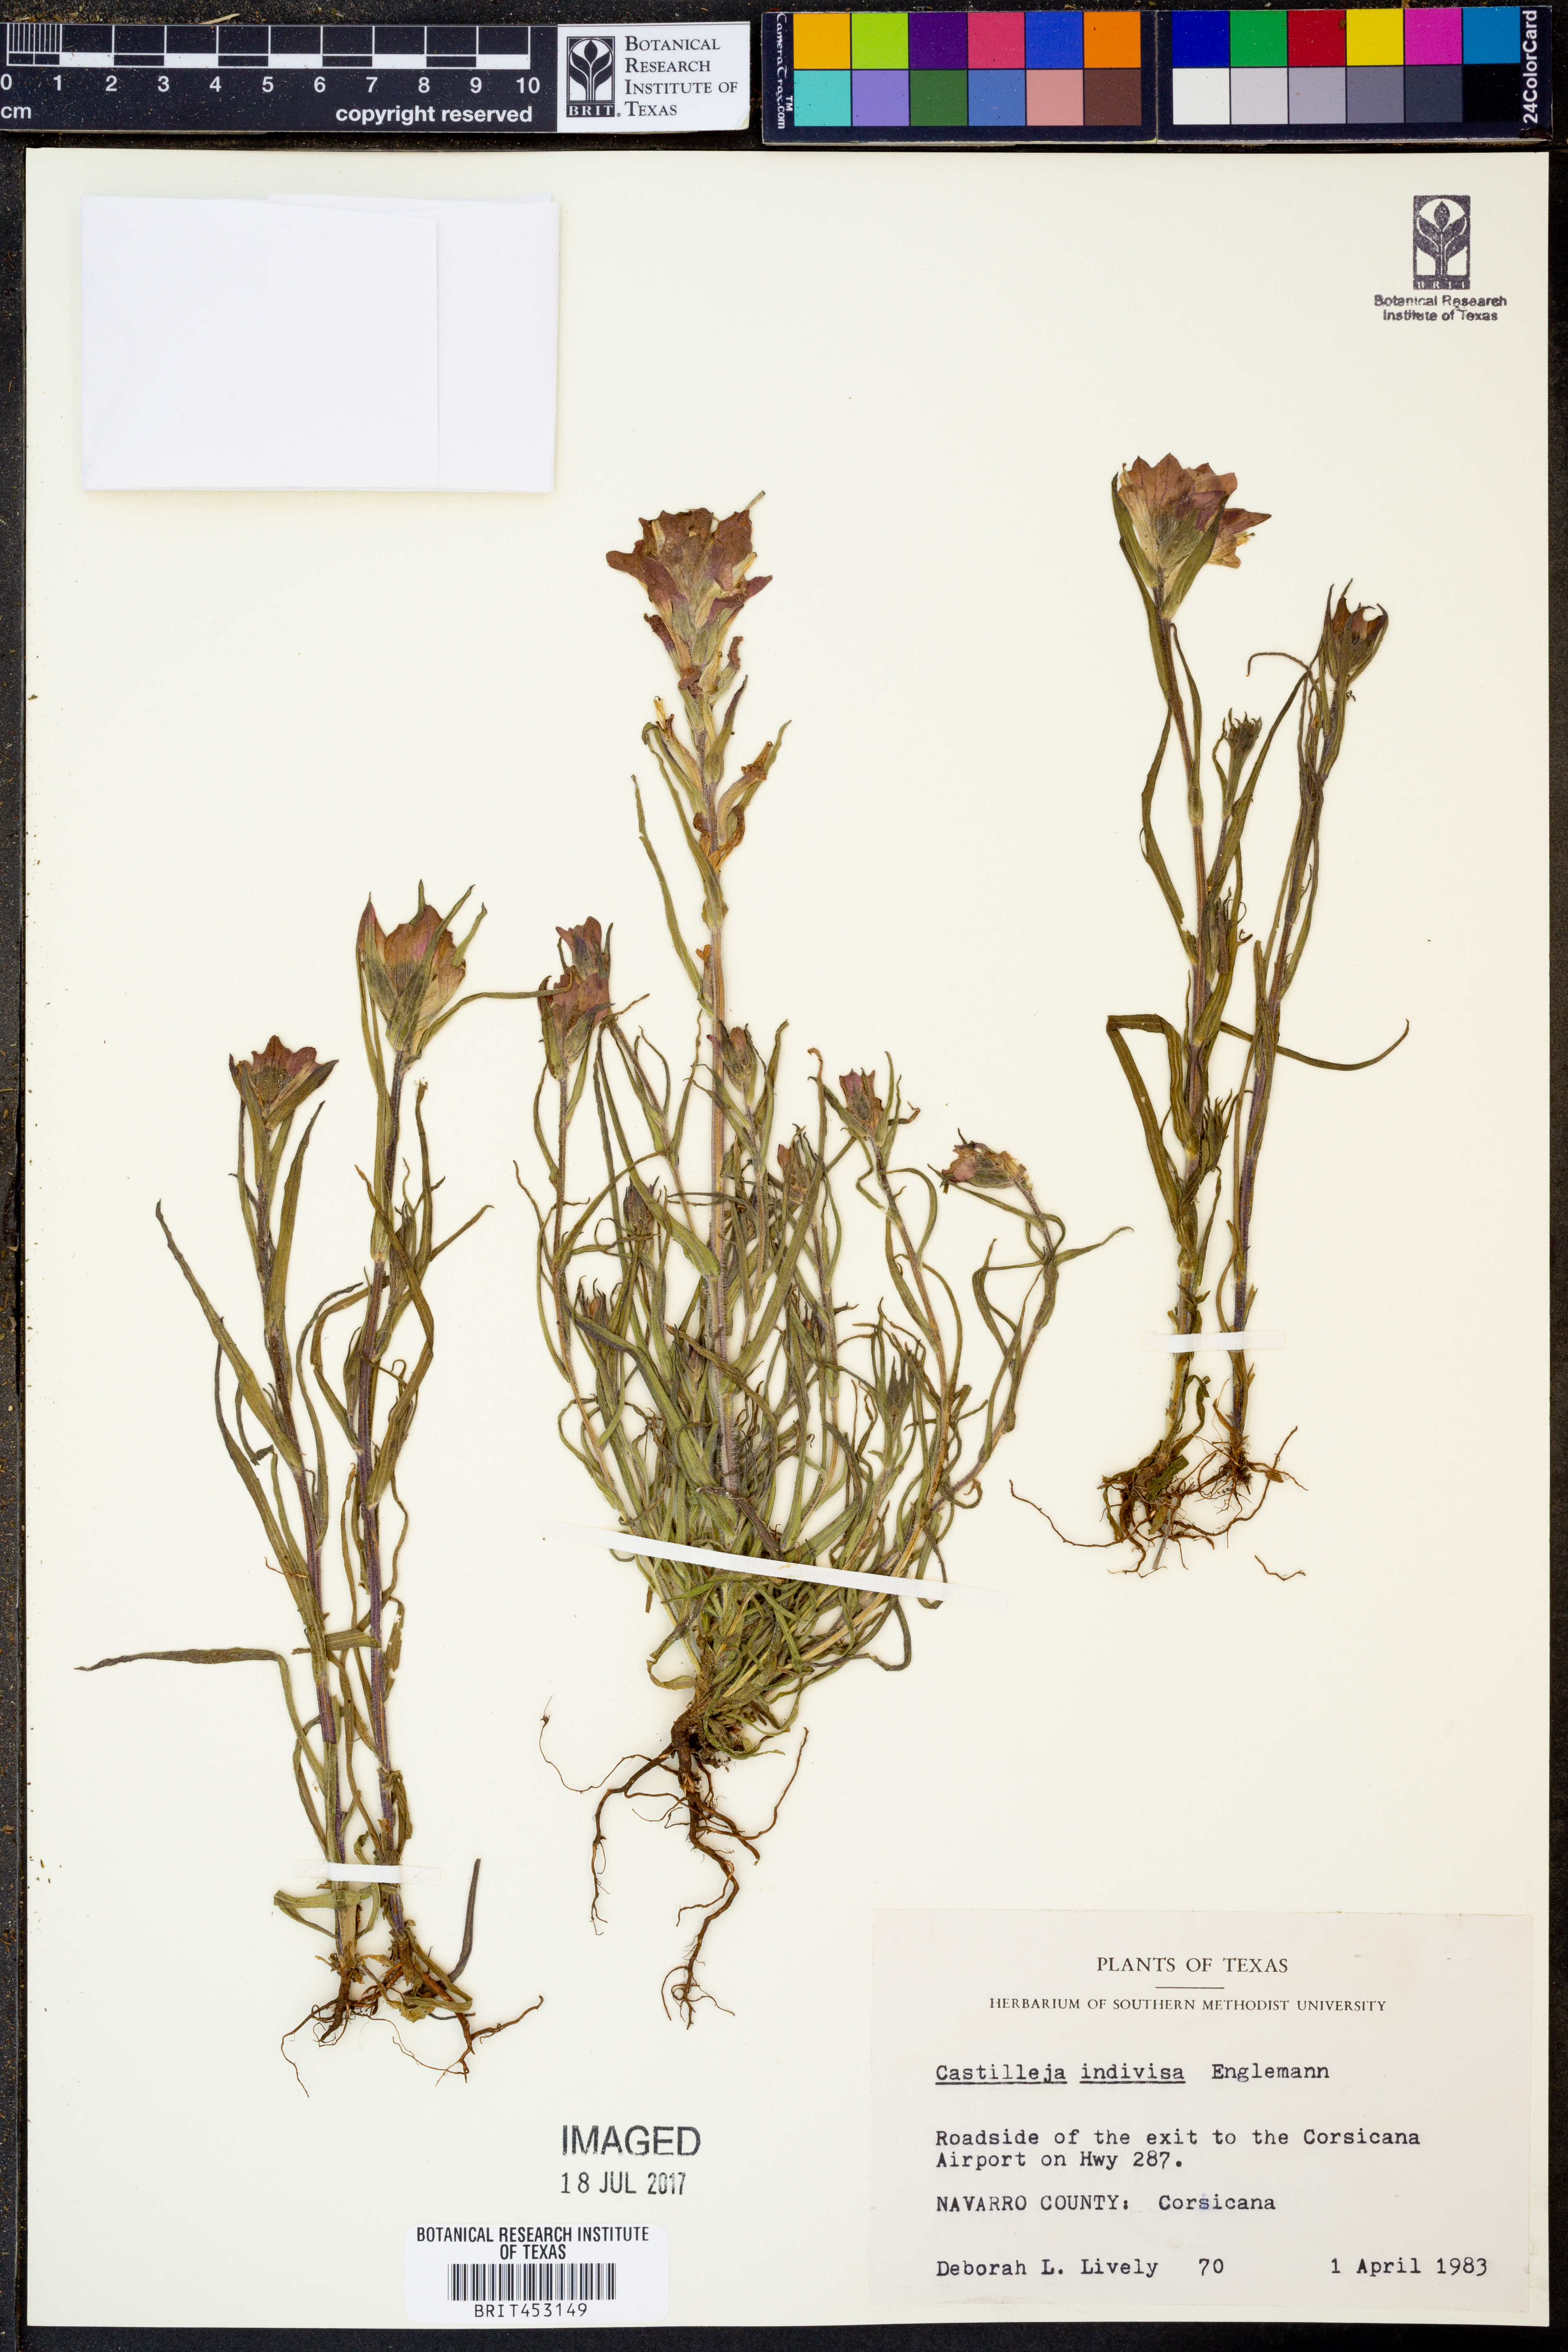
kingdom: Plantae
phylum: Tracheophyta
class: Magnoliopsida
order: Lamiales
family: Orobanchaceae
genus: Castilleja
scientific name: Castilleja indivisa
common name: Texas paintbrush
